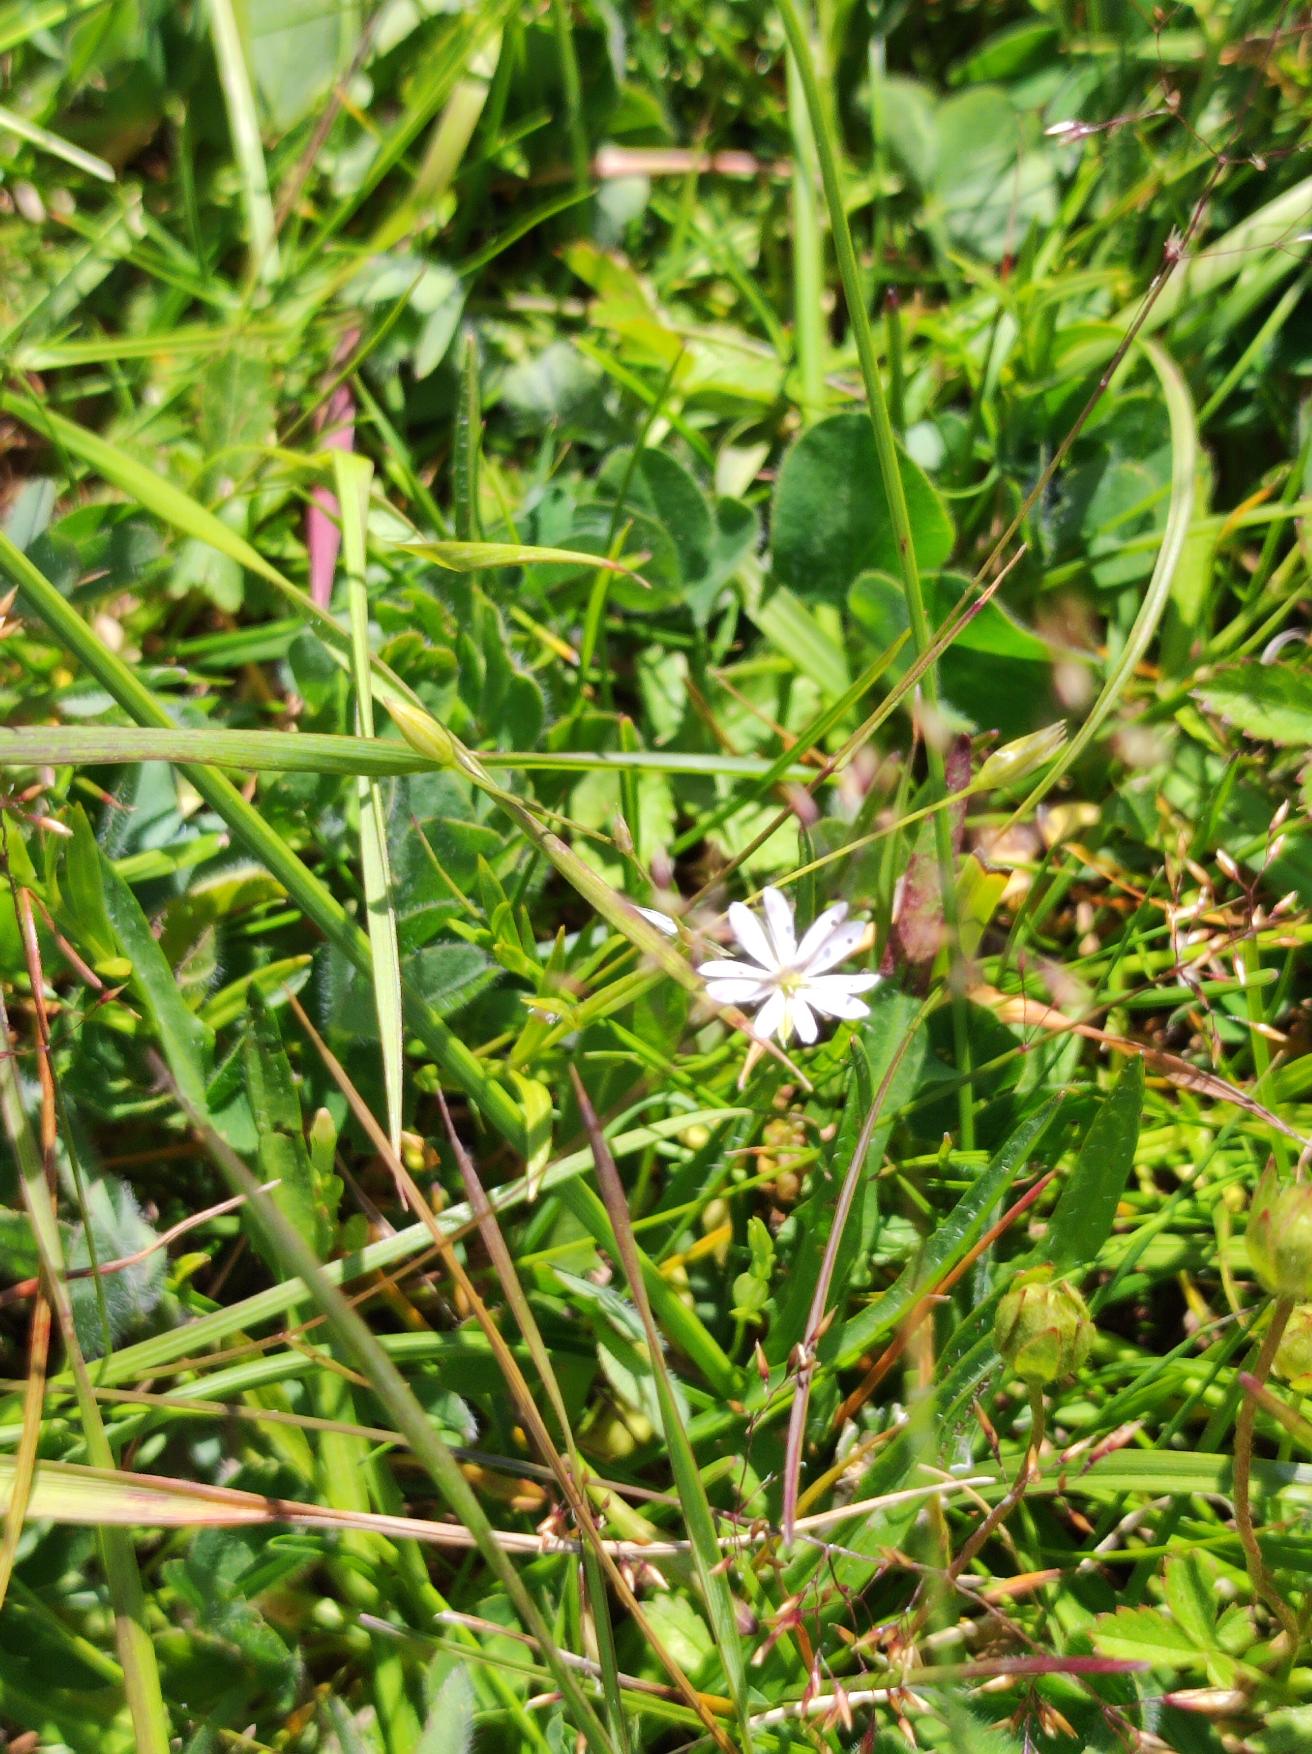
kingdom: Plantae
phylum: Tracheophyta
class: Magnoliopsida
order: Caryophyllales
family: Caryophyllaceae
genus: Stellaria
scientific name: Stellaria graminea
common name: Græsbladet fladstjerne
